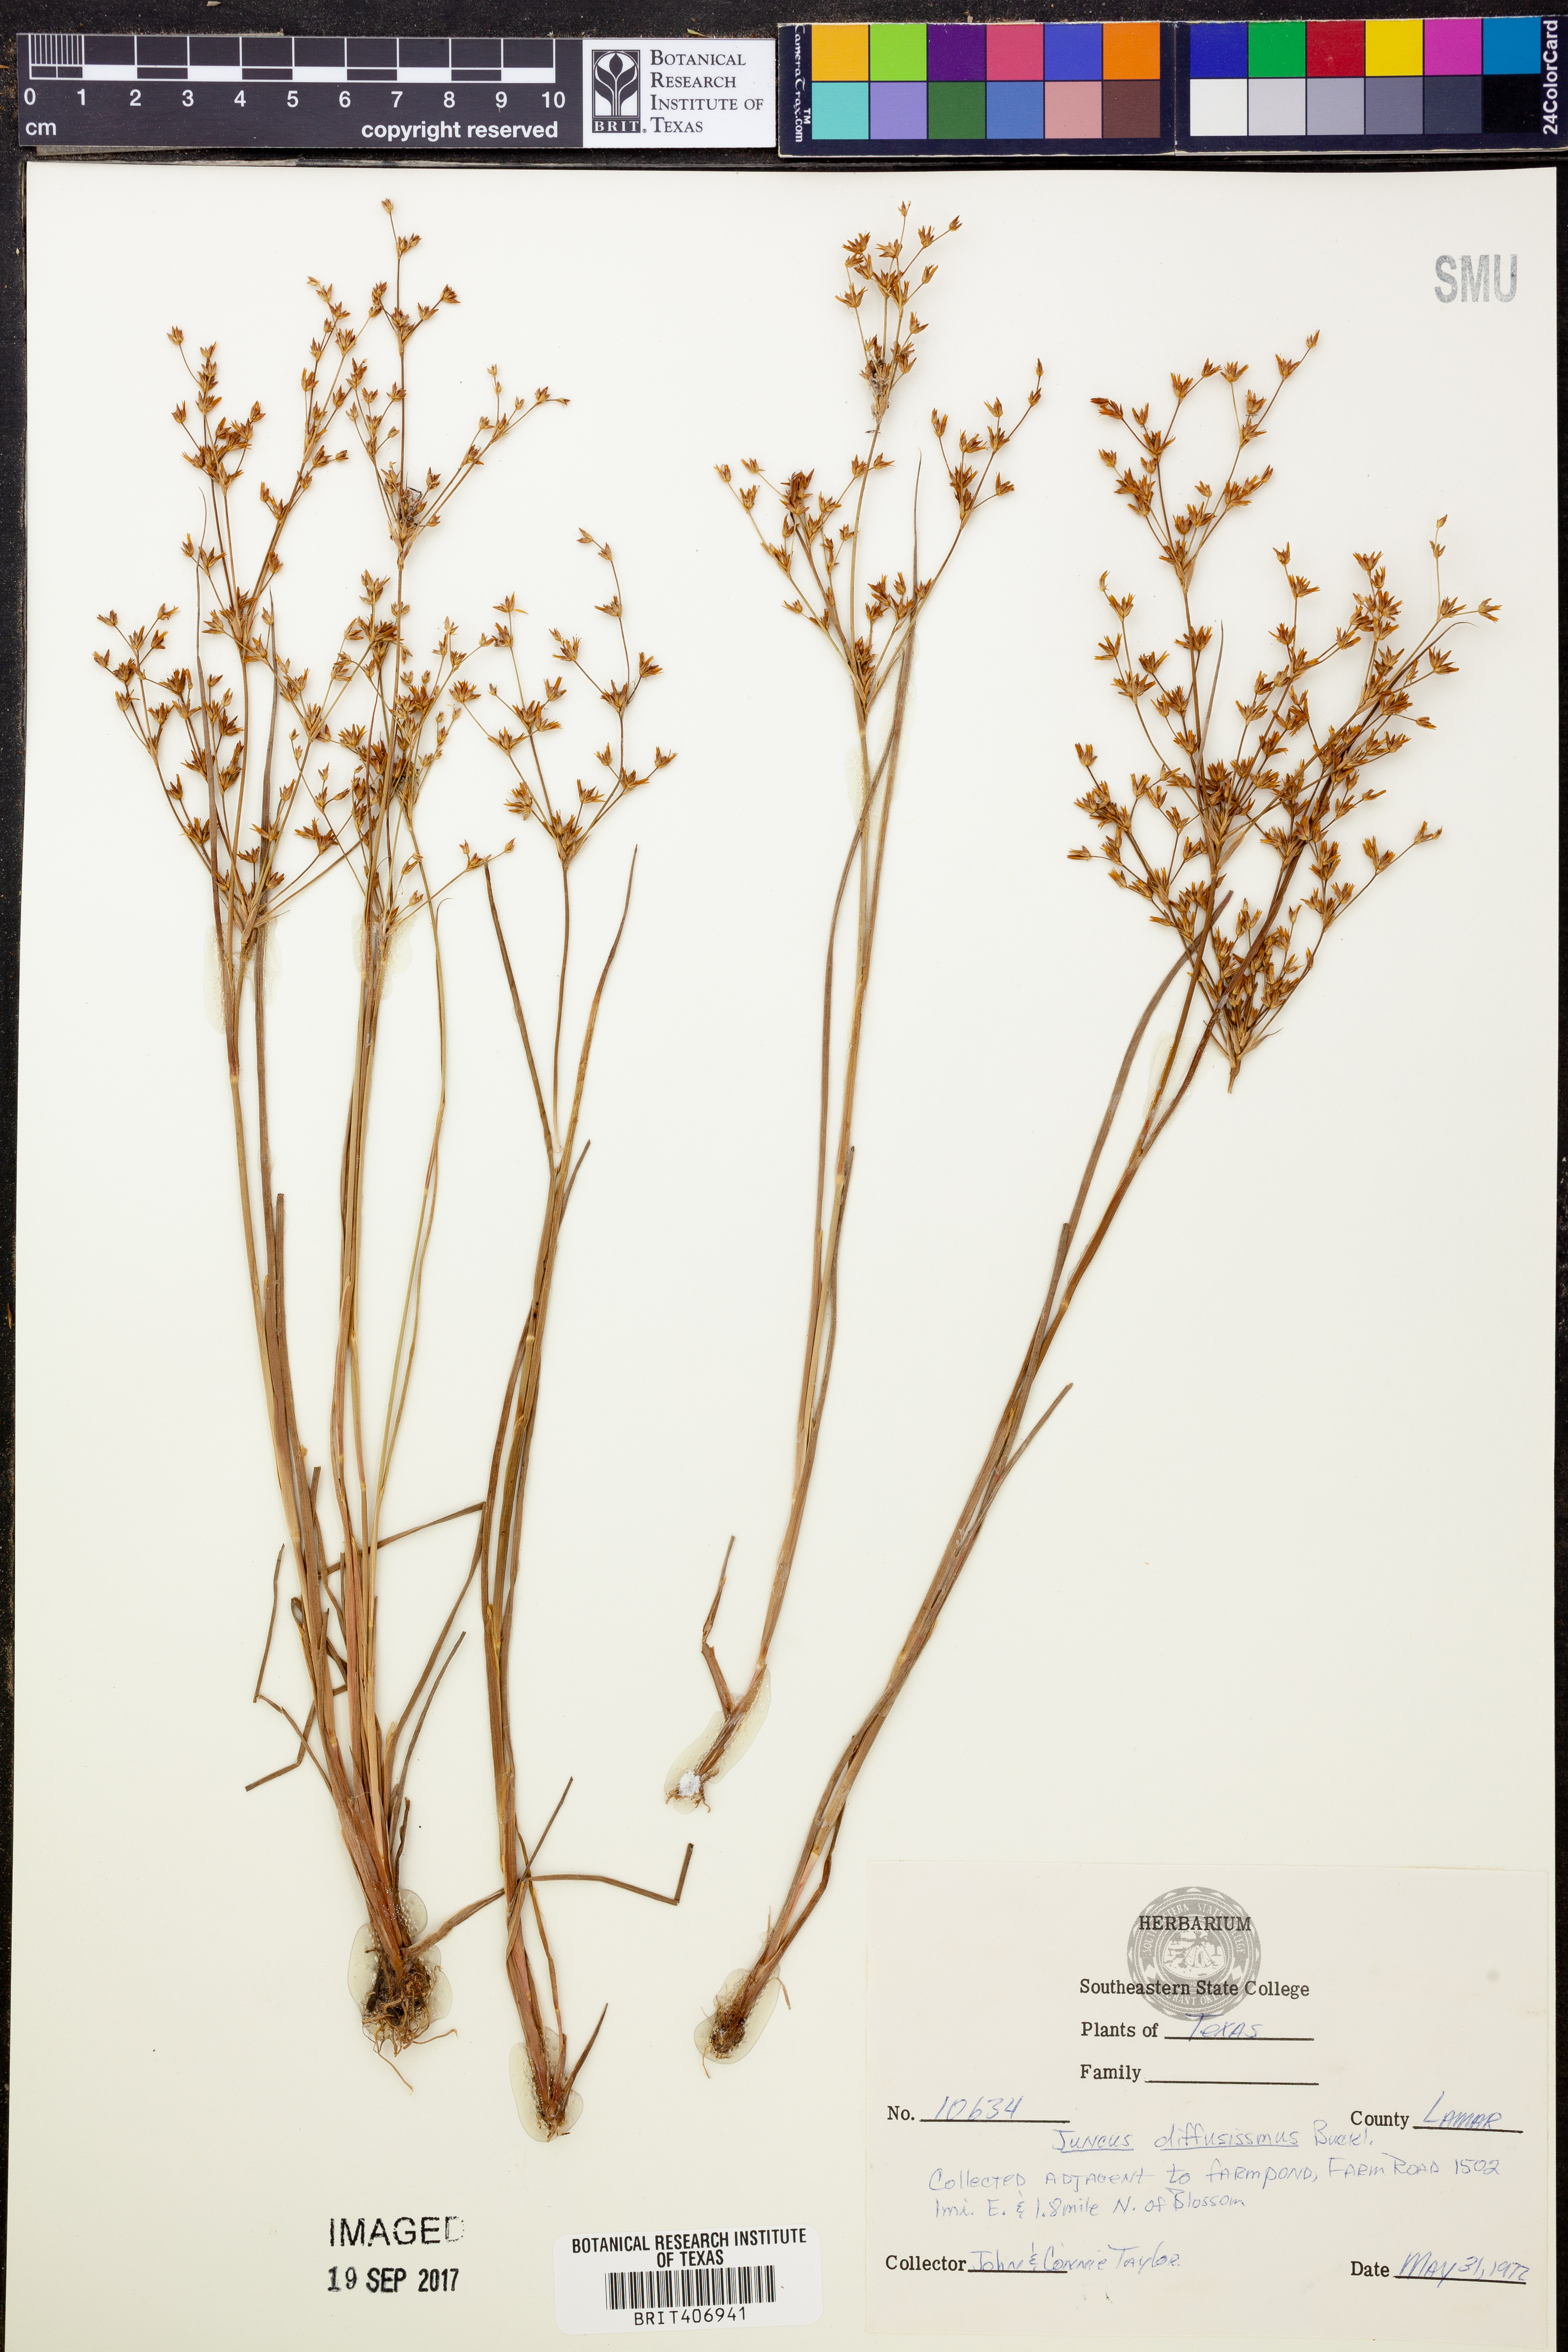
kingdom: Plantae
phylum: Tracheophyta
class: Liliopsida
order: Poales
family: Juncaceae
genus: Juncus
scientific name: Juncus diffusissimus
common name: Slimpod rush
